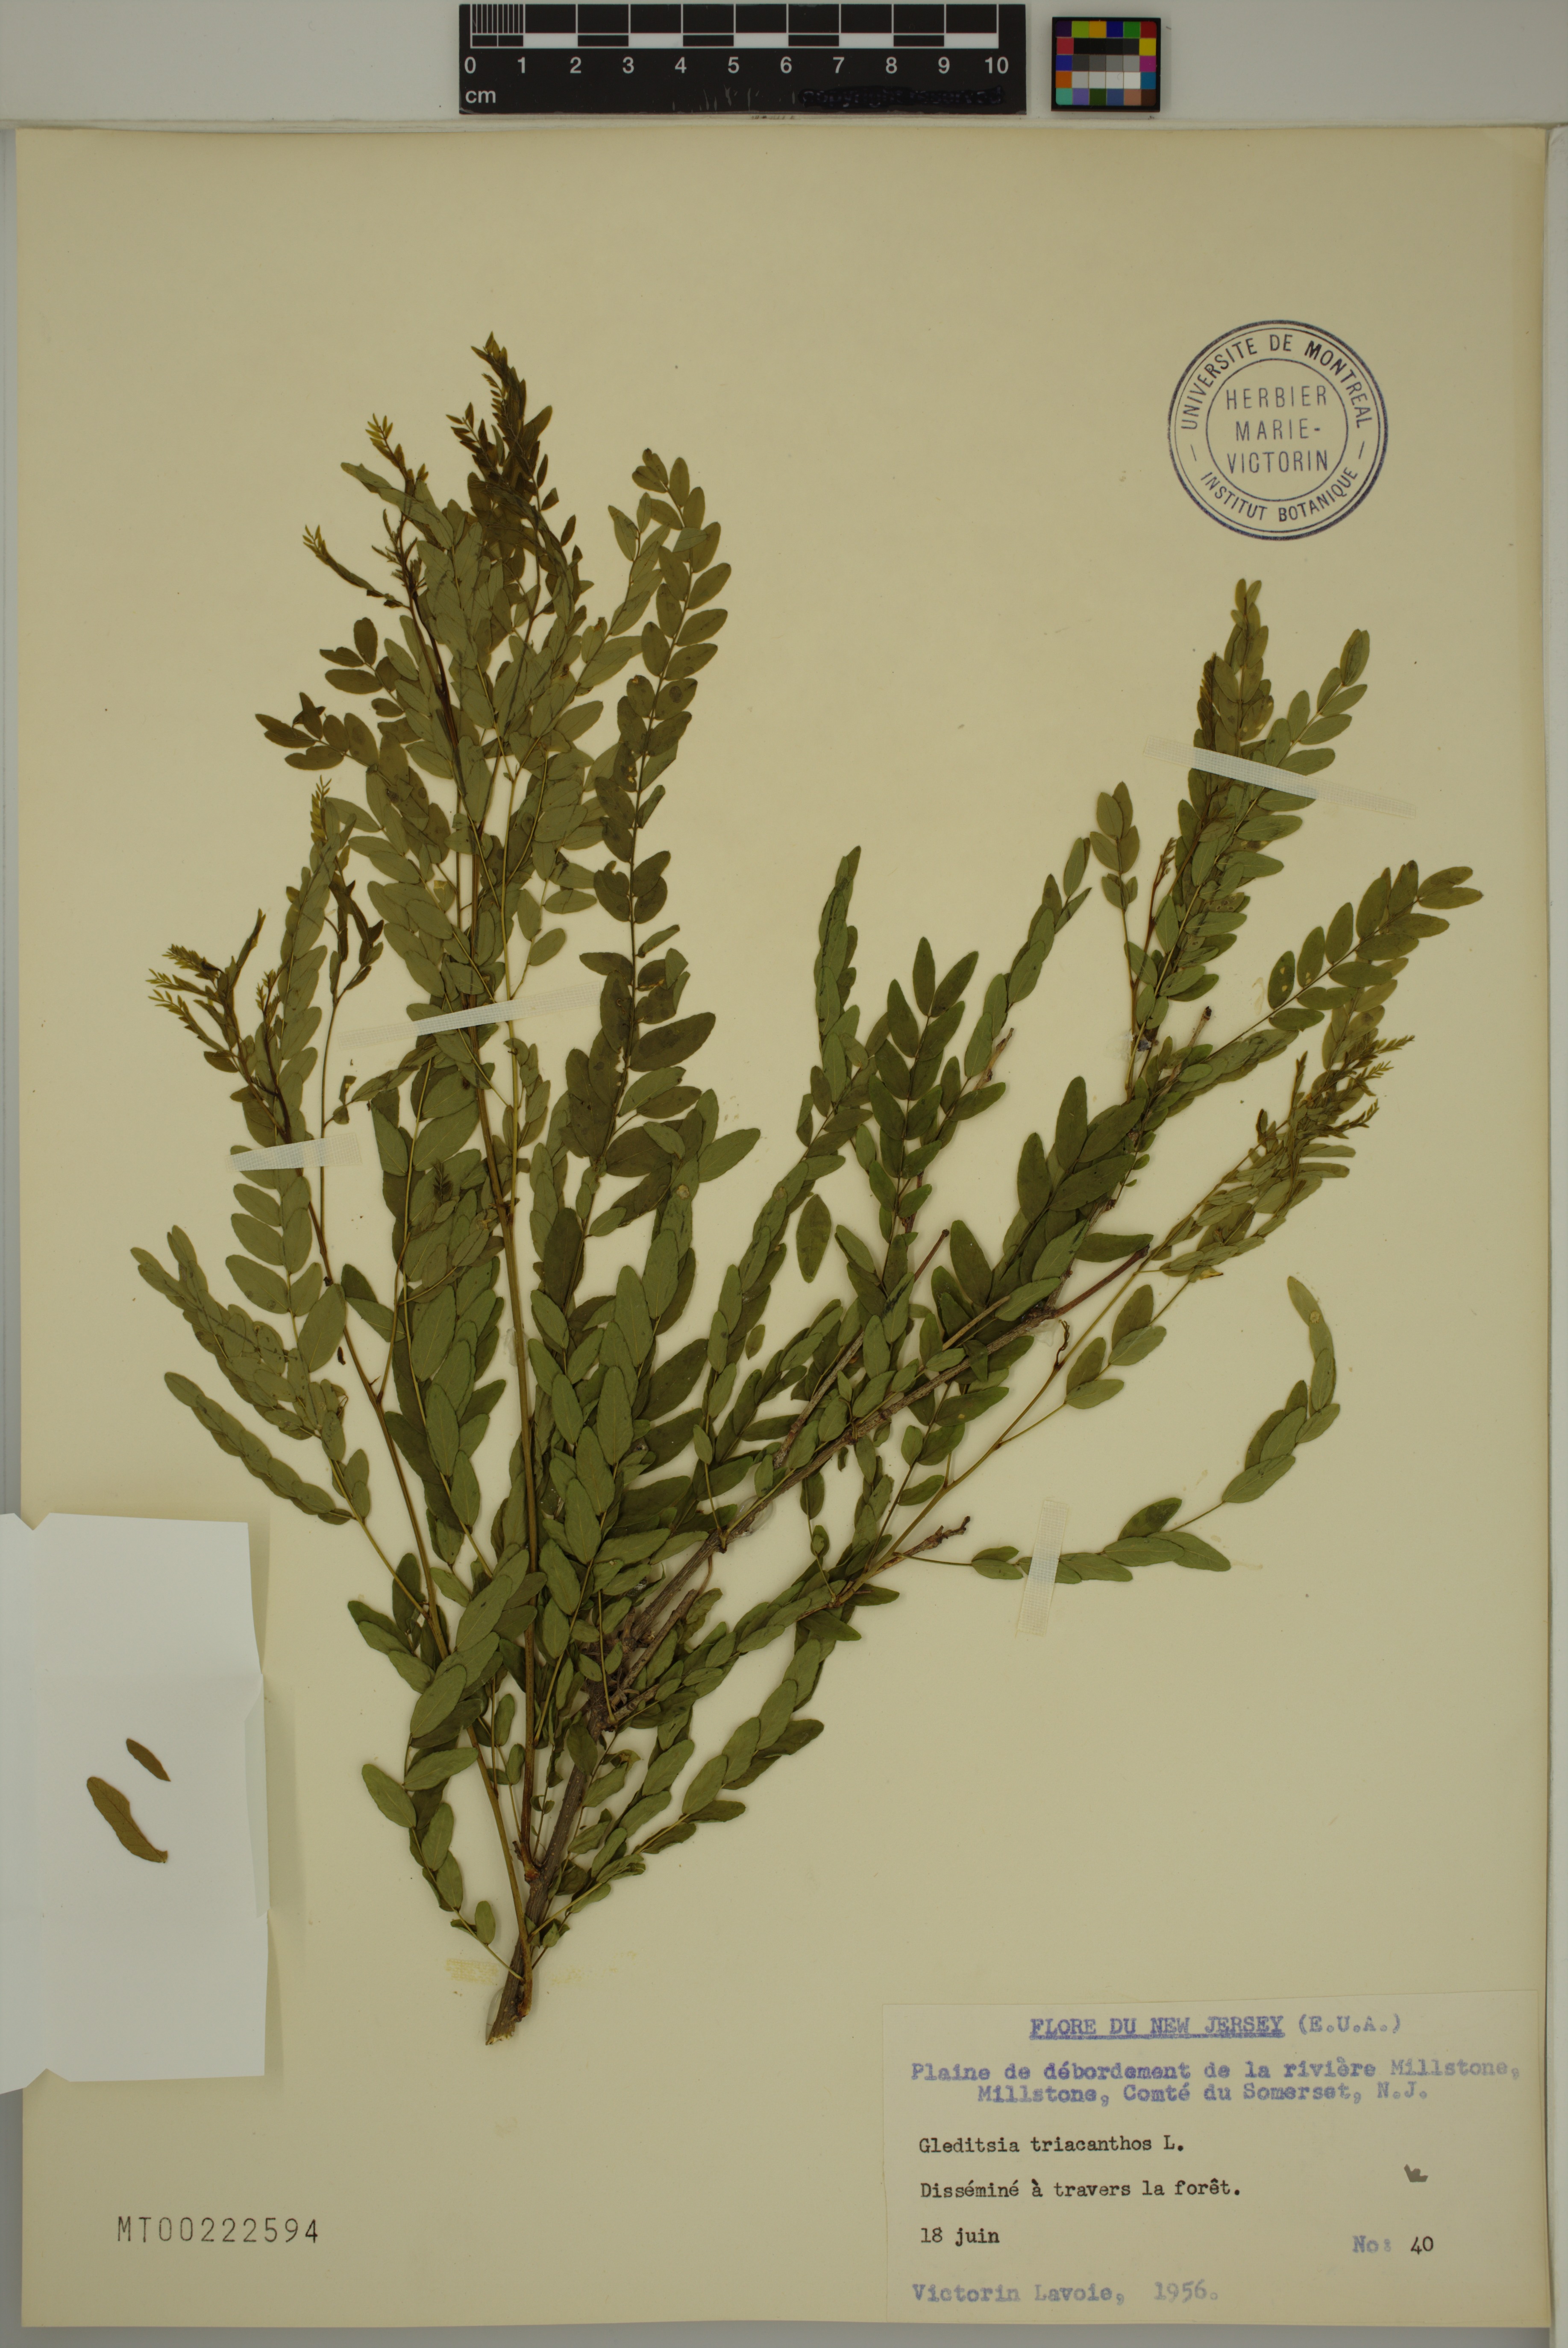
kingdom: Plantae
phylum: Tracheophyta
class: Magnoliopsida
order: Fabales
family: Fabaceae
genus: Gleditsia
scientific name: Gleditsia triacanthos
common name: Common honeylocust
